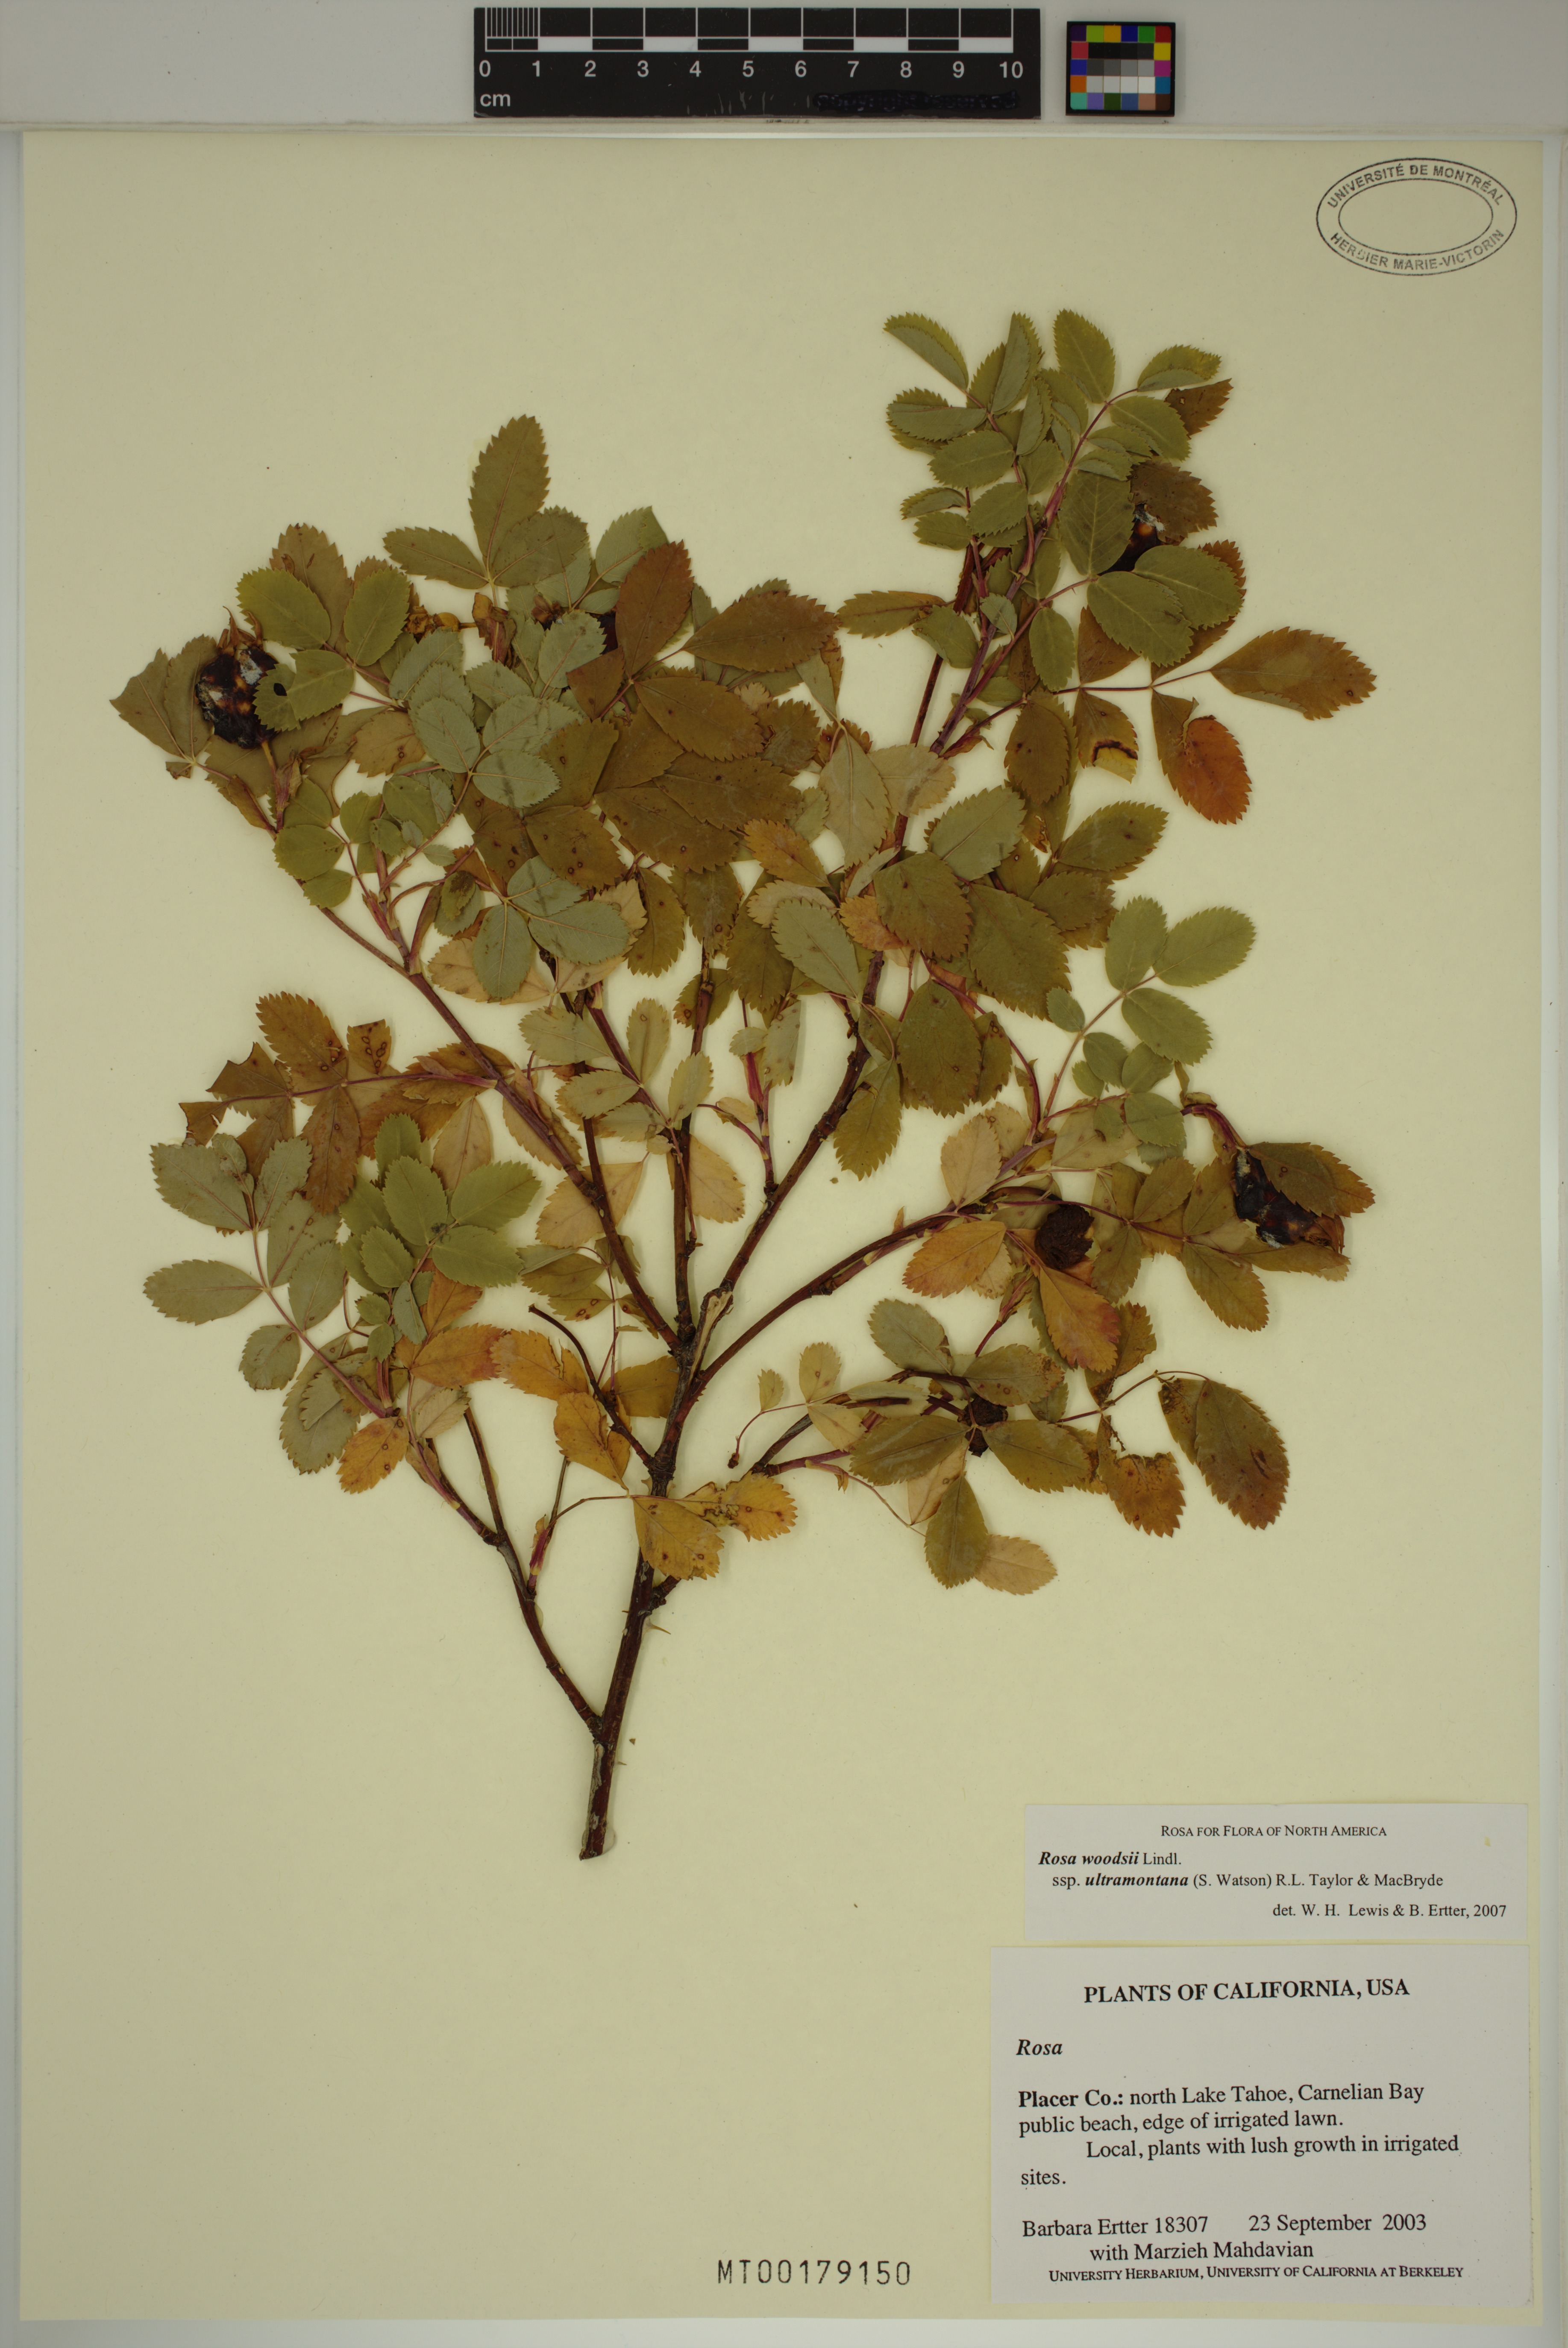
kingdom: Plantae
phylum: Tracheophyta
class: Magnoliopsida
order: Rosales
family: Rosaceae
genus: Rosa
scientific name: Rosa woodsii
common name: Woods's rose
